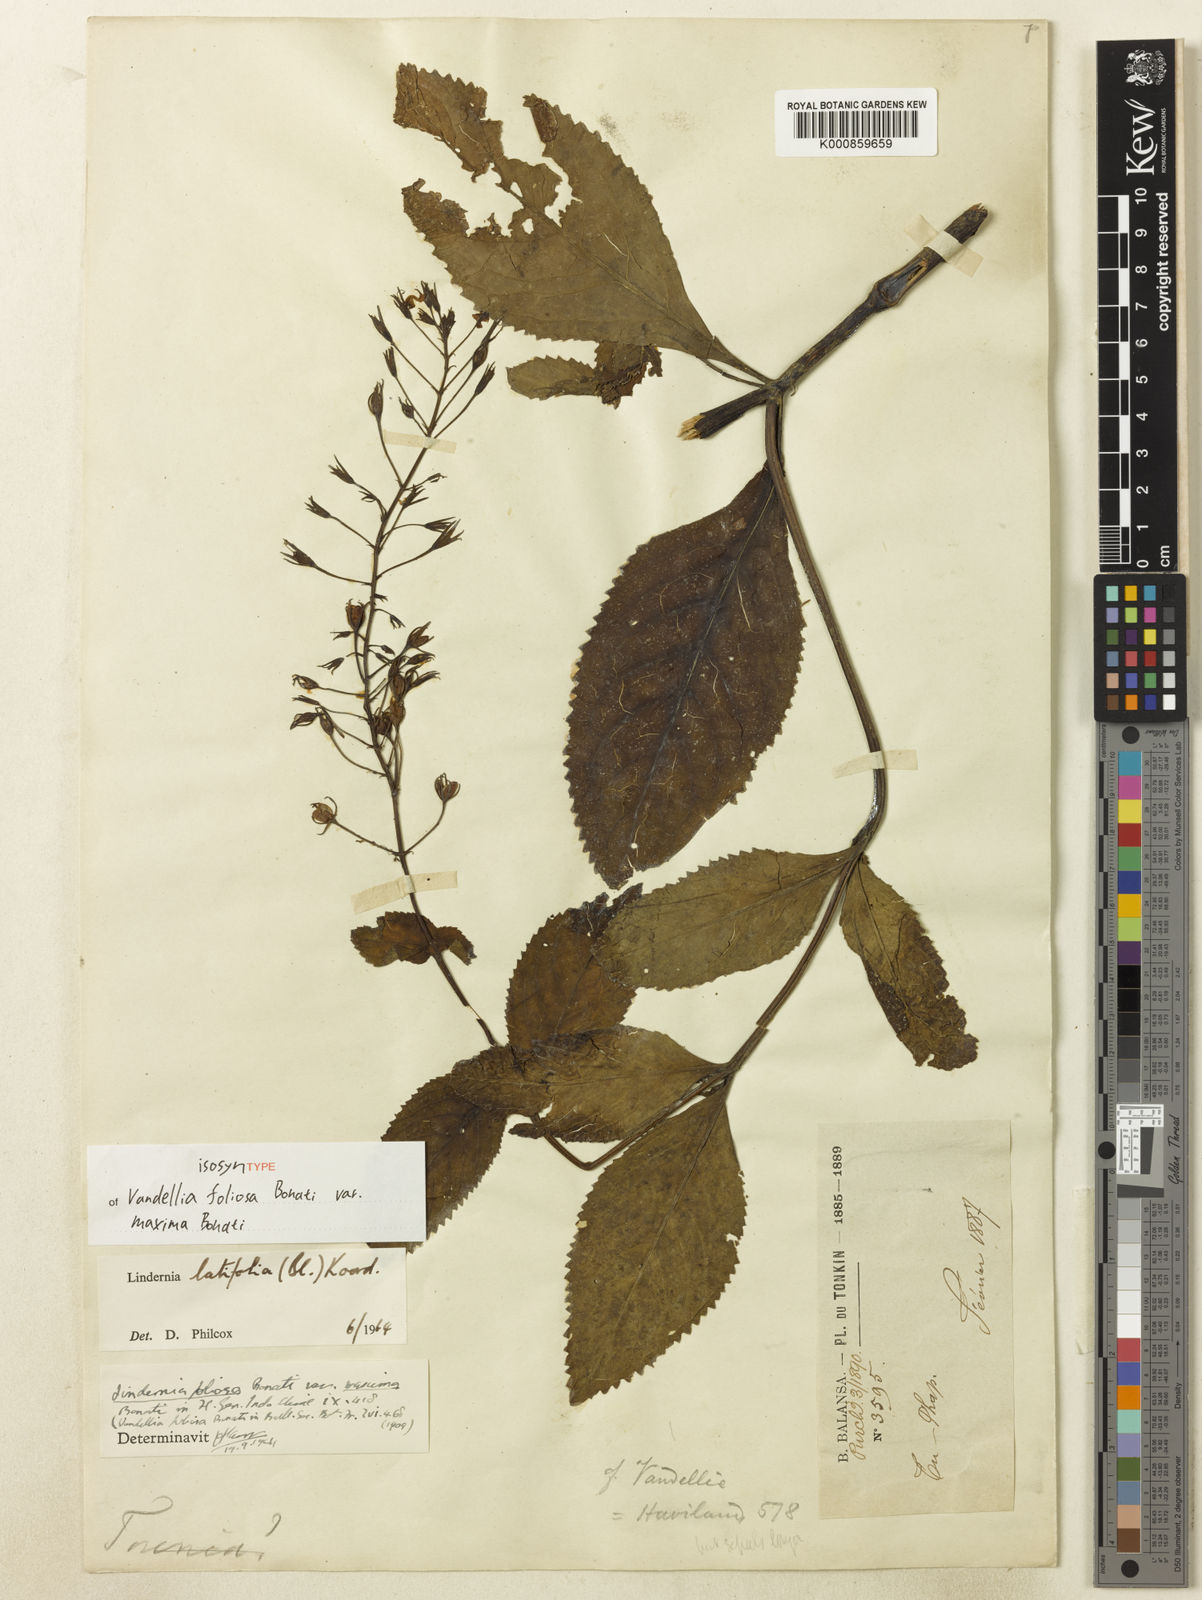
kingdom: Plantae
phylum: Tracheophyta
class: Magnoliopsida
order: Lamiales
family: Linderniaceae
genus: Vandellia
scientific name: Vandellia latifolia
